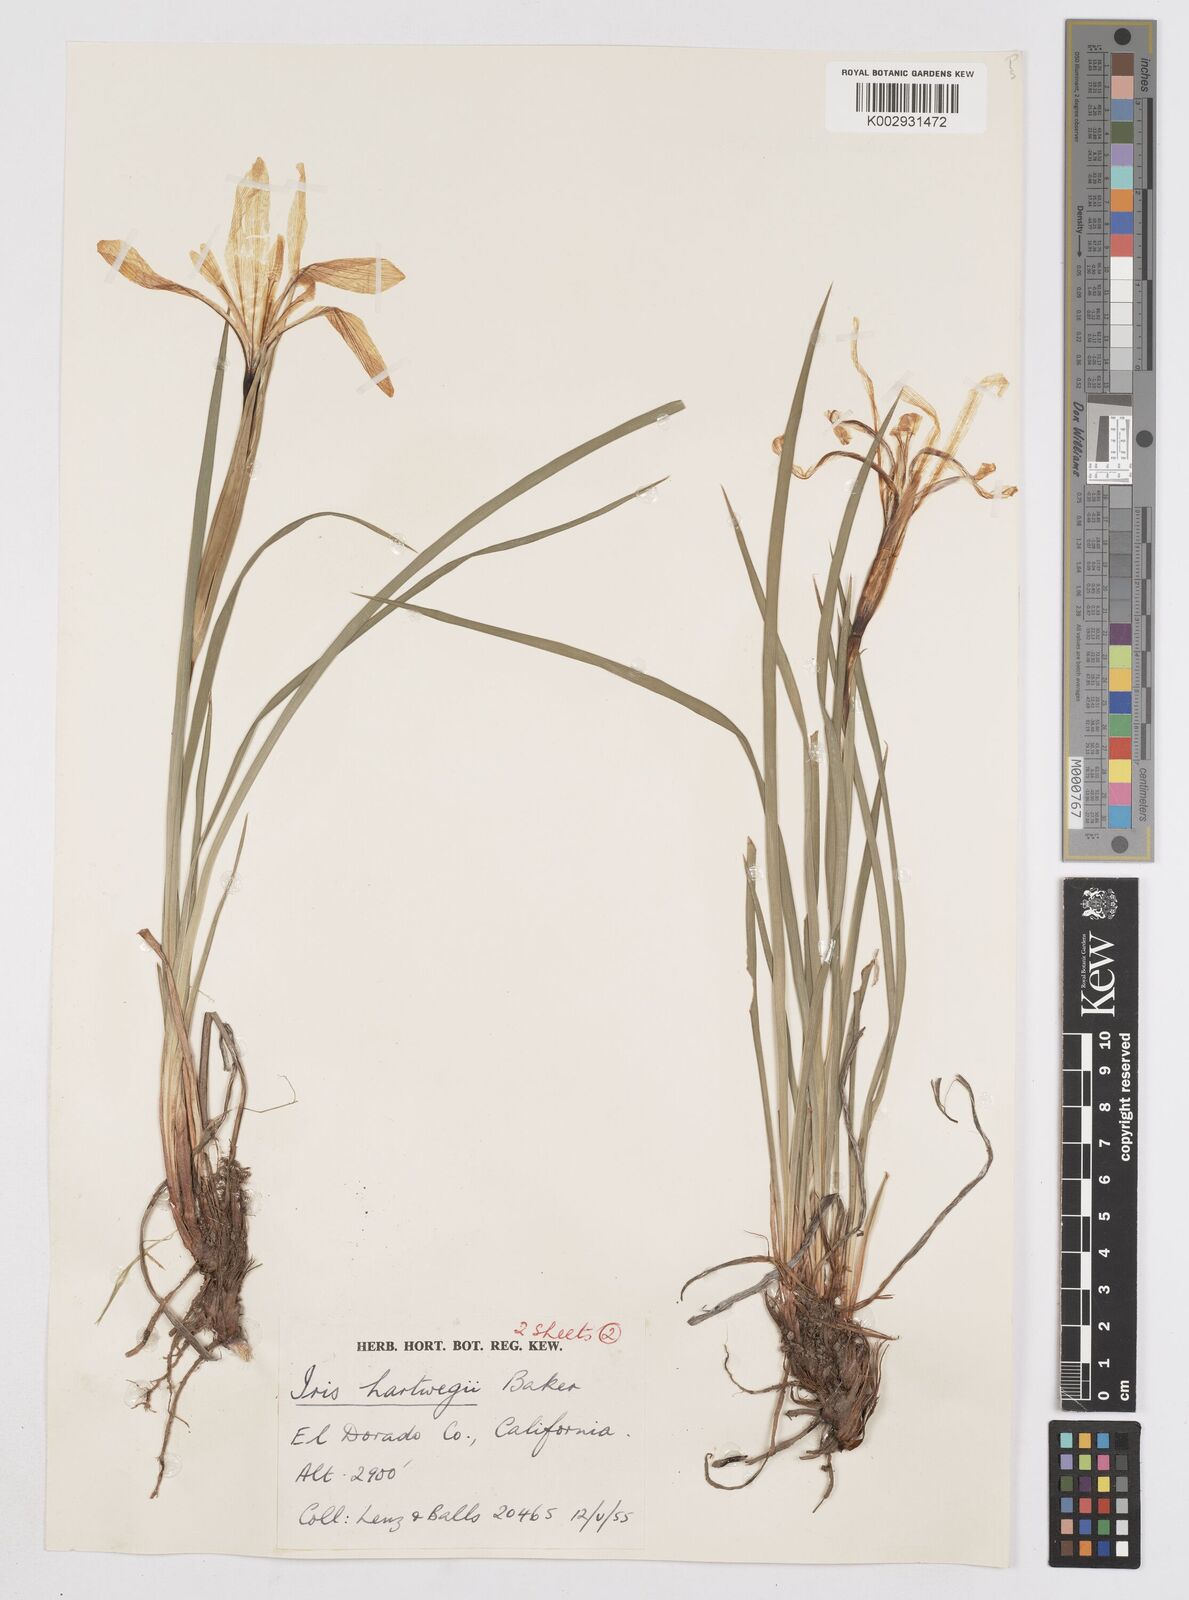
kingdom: Plantae
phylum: Tracheophyta
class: Liliopsida
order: Asparagales
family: Iridaceae
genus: Iris
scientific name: Iris hartwegii
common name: Sierra iris
